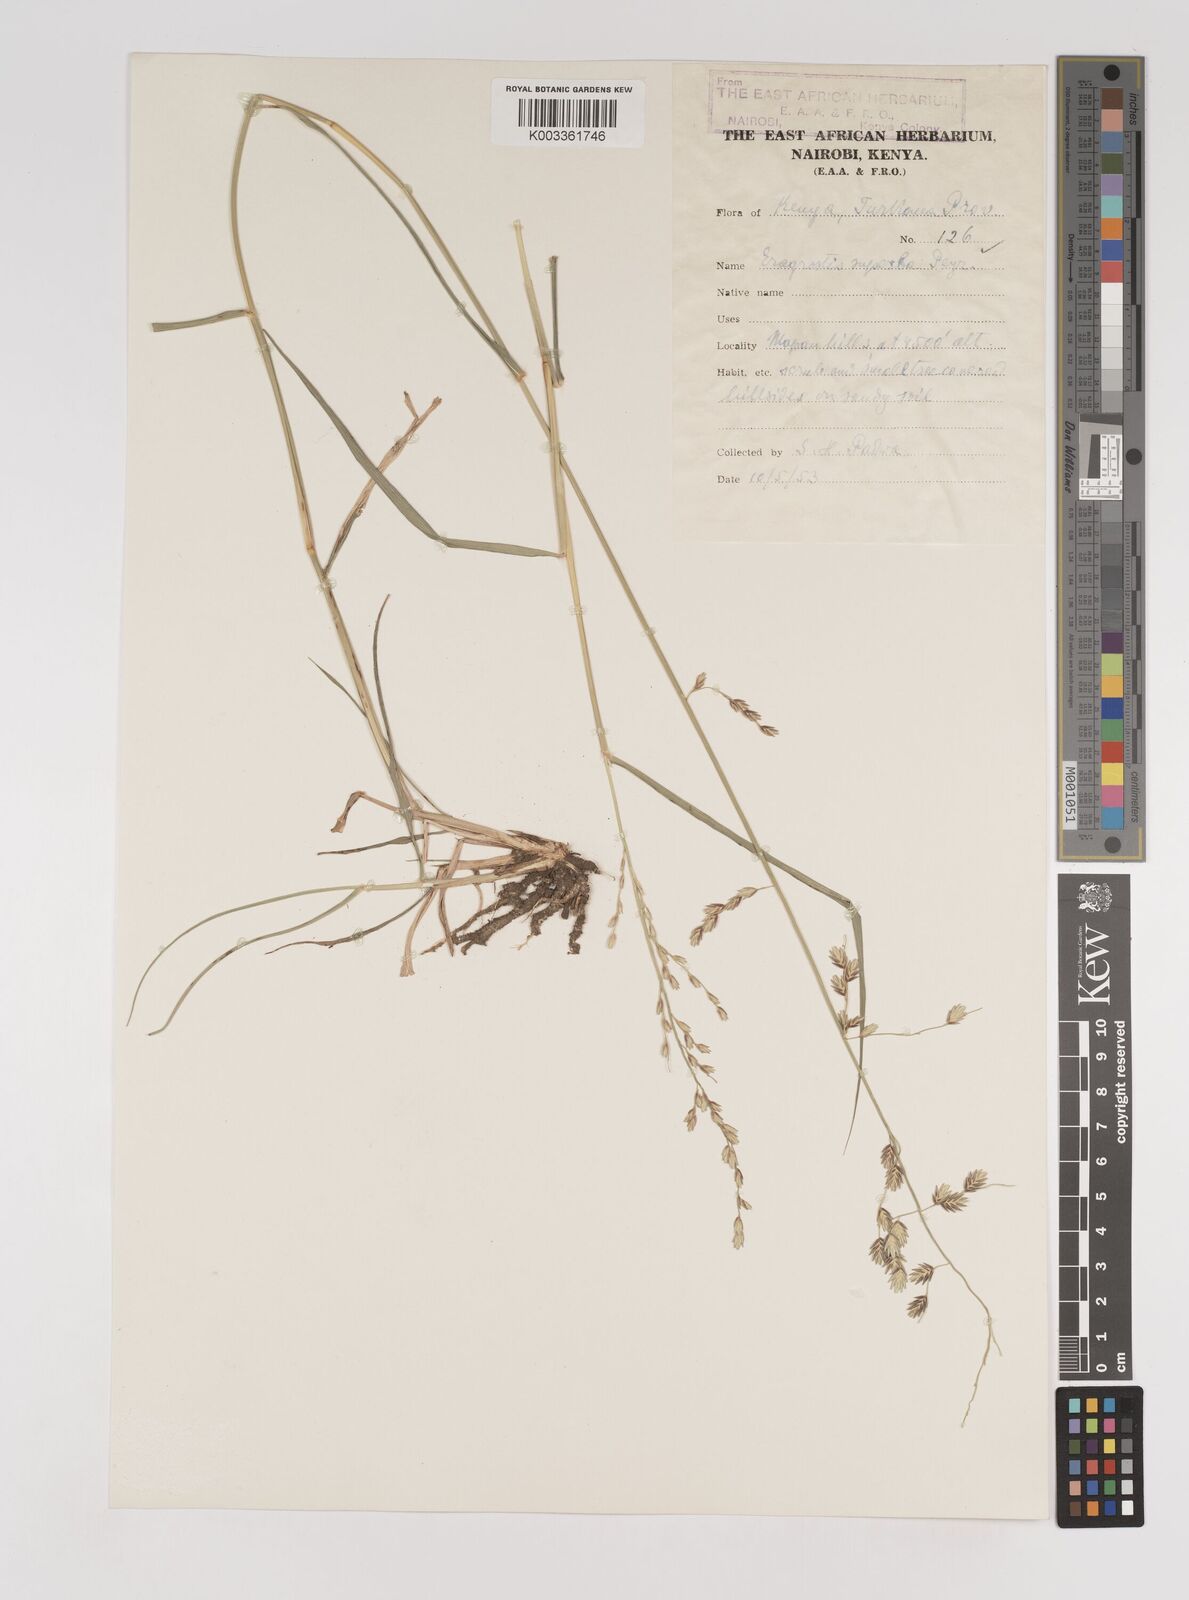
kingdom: Plantae
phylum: Tracheophyta
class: Liliopsida
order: Poales
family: Poaceae
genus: Eragrostis
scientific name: Eragrostis superba
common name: Wilman lovegrass
